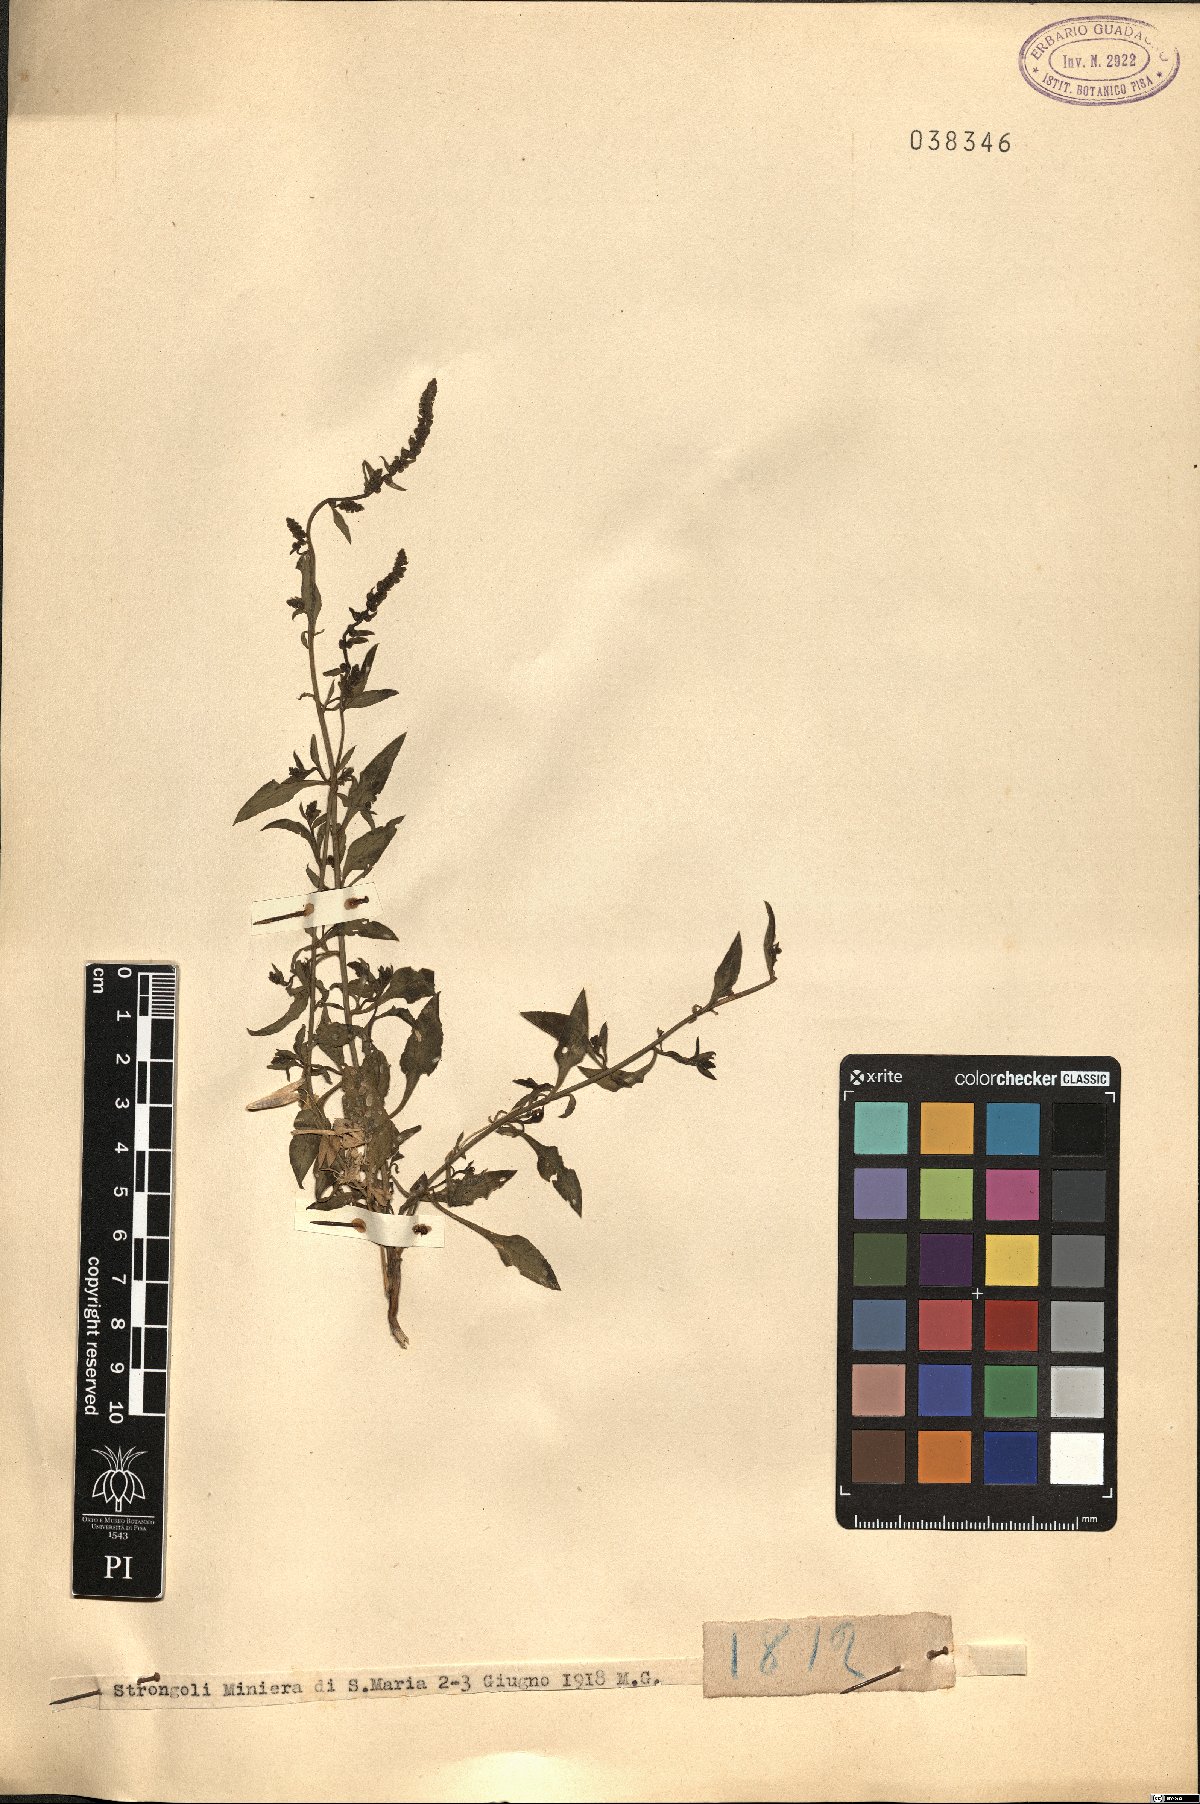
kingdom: Plantae
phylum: Tracheophyta
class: Magnoliopsida
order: Caryophyllales
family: Amaranthaceae
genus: Beta
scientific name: Beta
